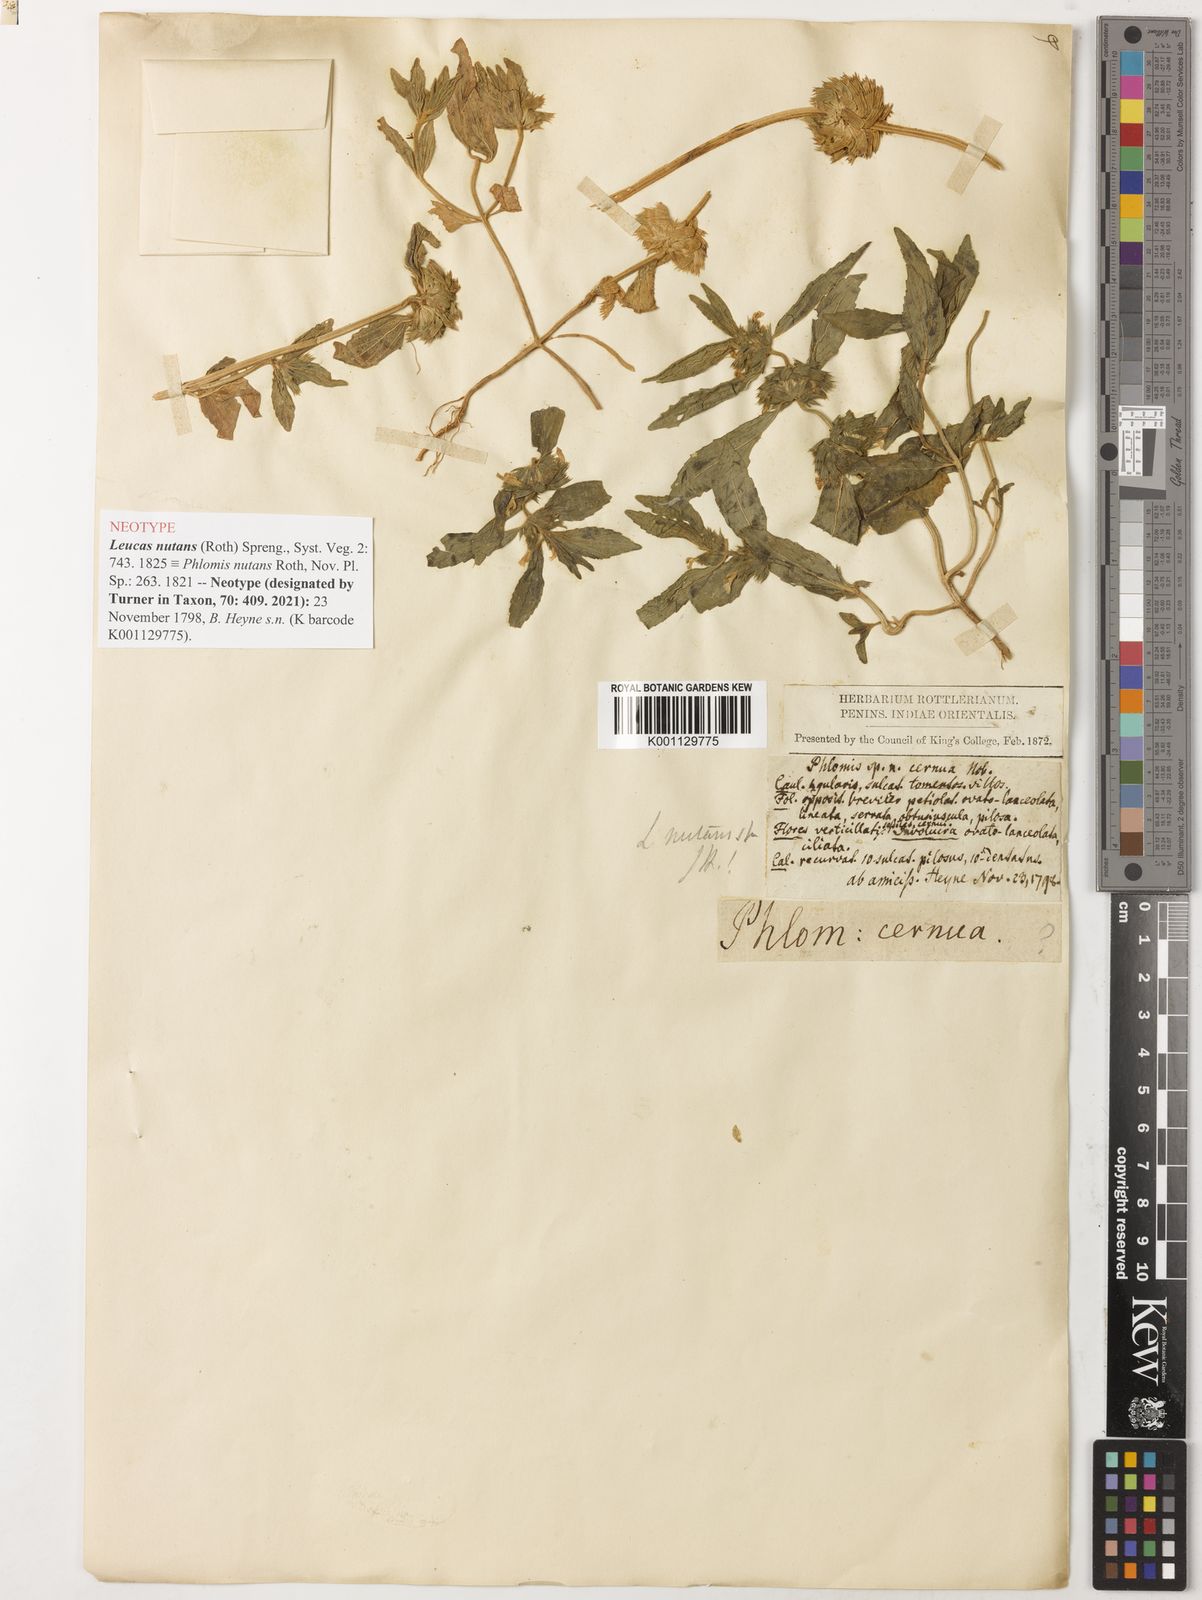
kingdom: Plantae
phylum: Tracheophyta
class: Magnoliopsida
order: Lamiales
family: Lamiaceae
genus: Leucas
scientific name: Leucas nutans
